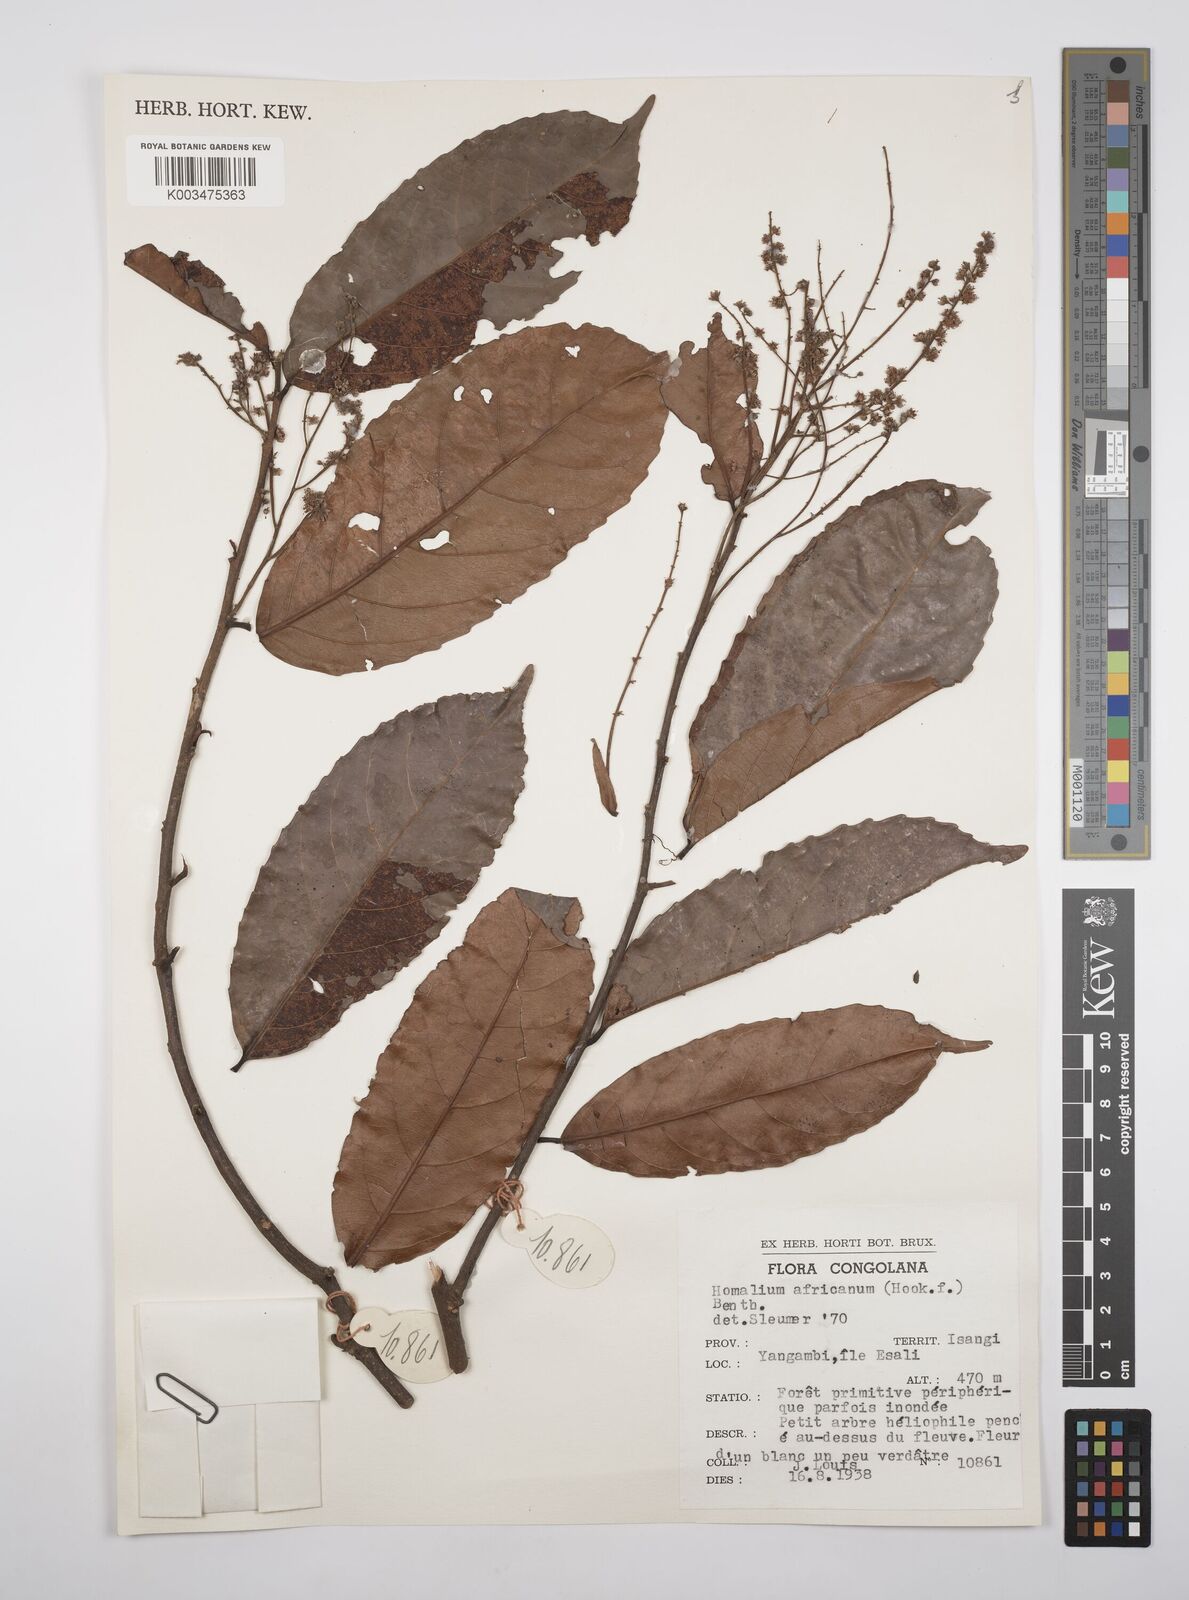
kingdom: Plantae
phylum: Tracheophyta
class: Magnoliopsida
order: Malpighiales
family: Salicaceae
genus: Homalium
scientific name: Homalium africanum
